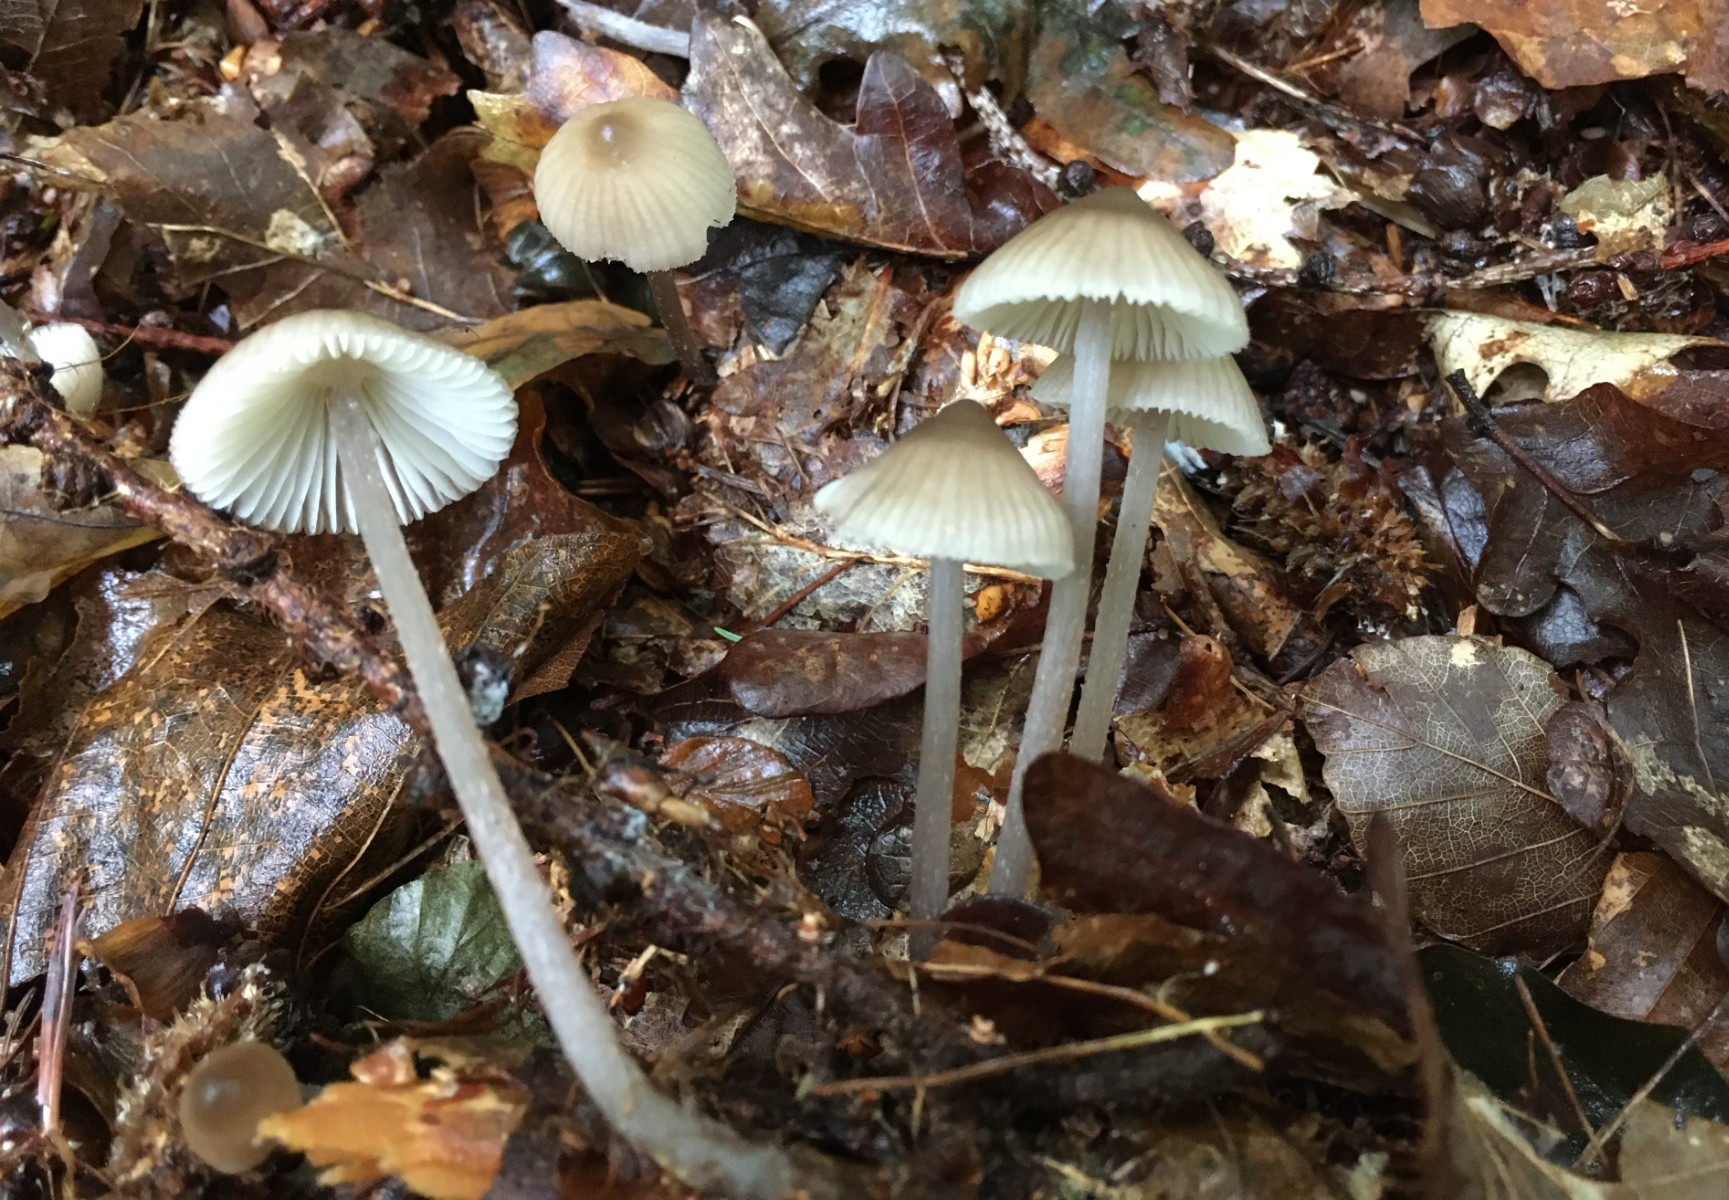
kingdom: Fungi
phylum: Basidiomycota
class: Agaricomycetes
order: Agaricales
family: Mycenaceae
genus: Mycena
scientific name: Mycena abramsii
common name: sommer-huesvamp
